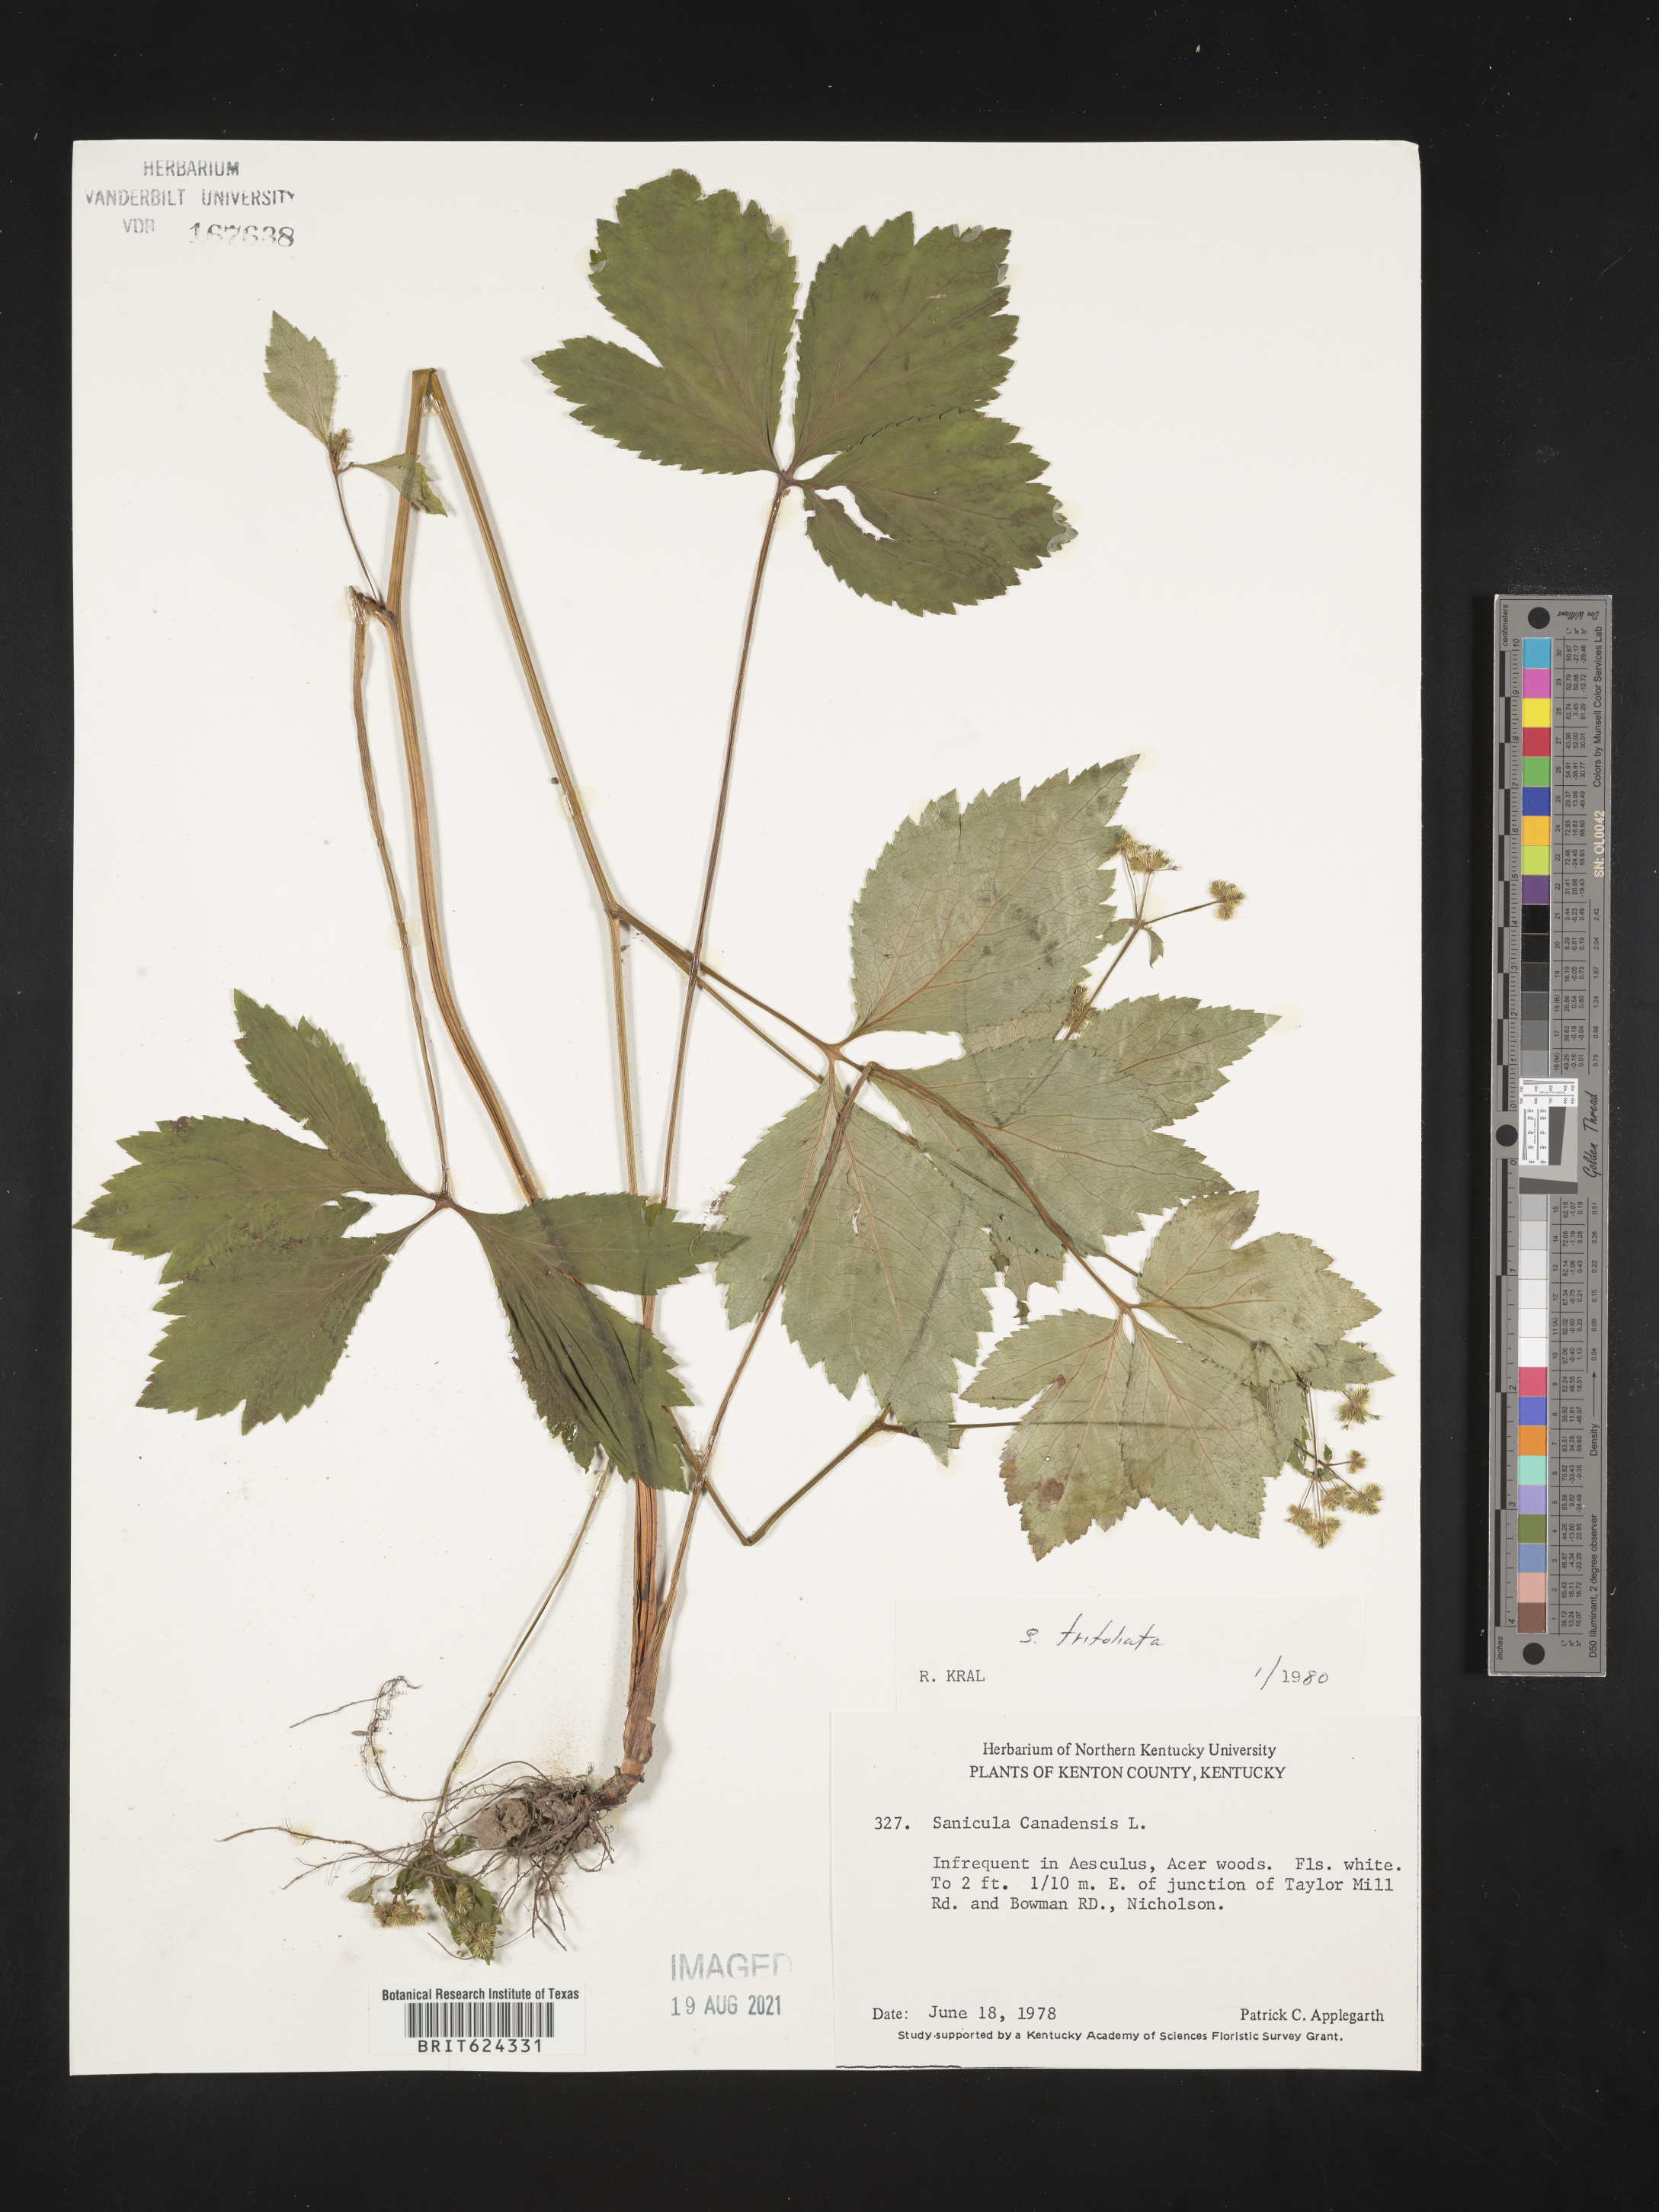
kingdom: Plantae
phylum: Tracheophyta
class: Magnoliopsida
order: Apiales
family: Apiaceae
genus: Sanicula
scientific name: Sanicula trifoliata
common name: Beaked sanicle
